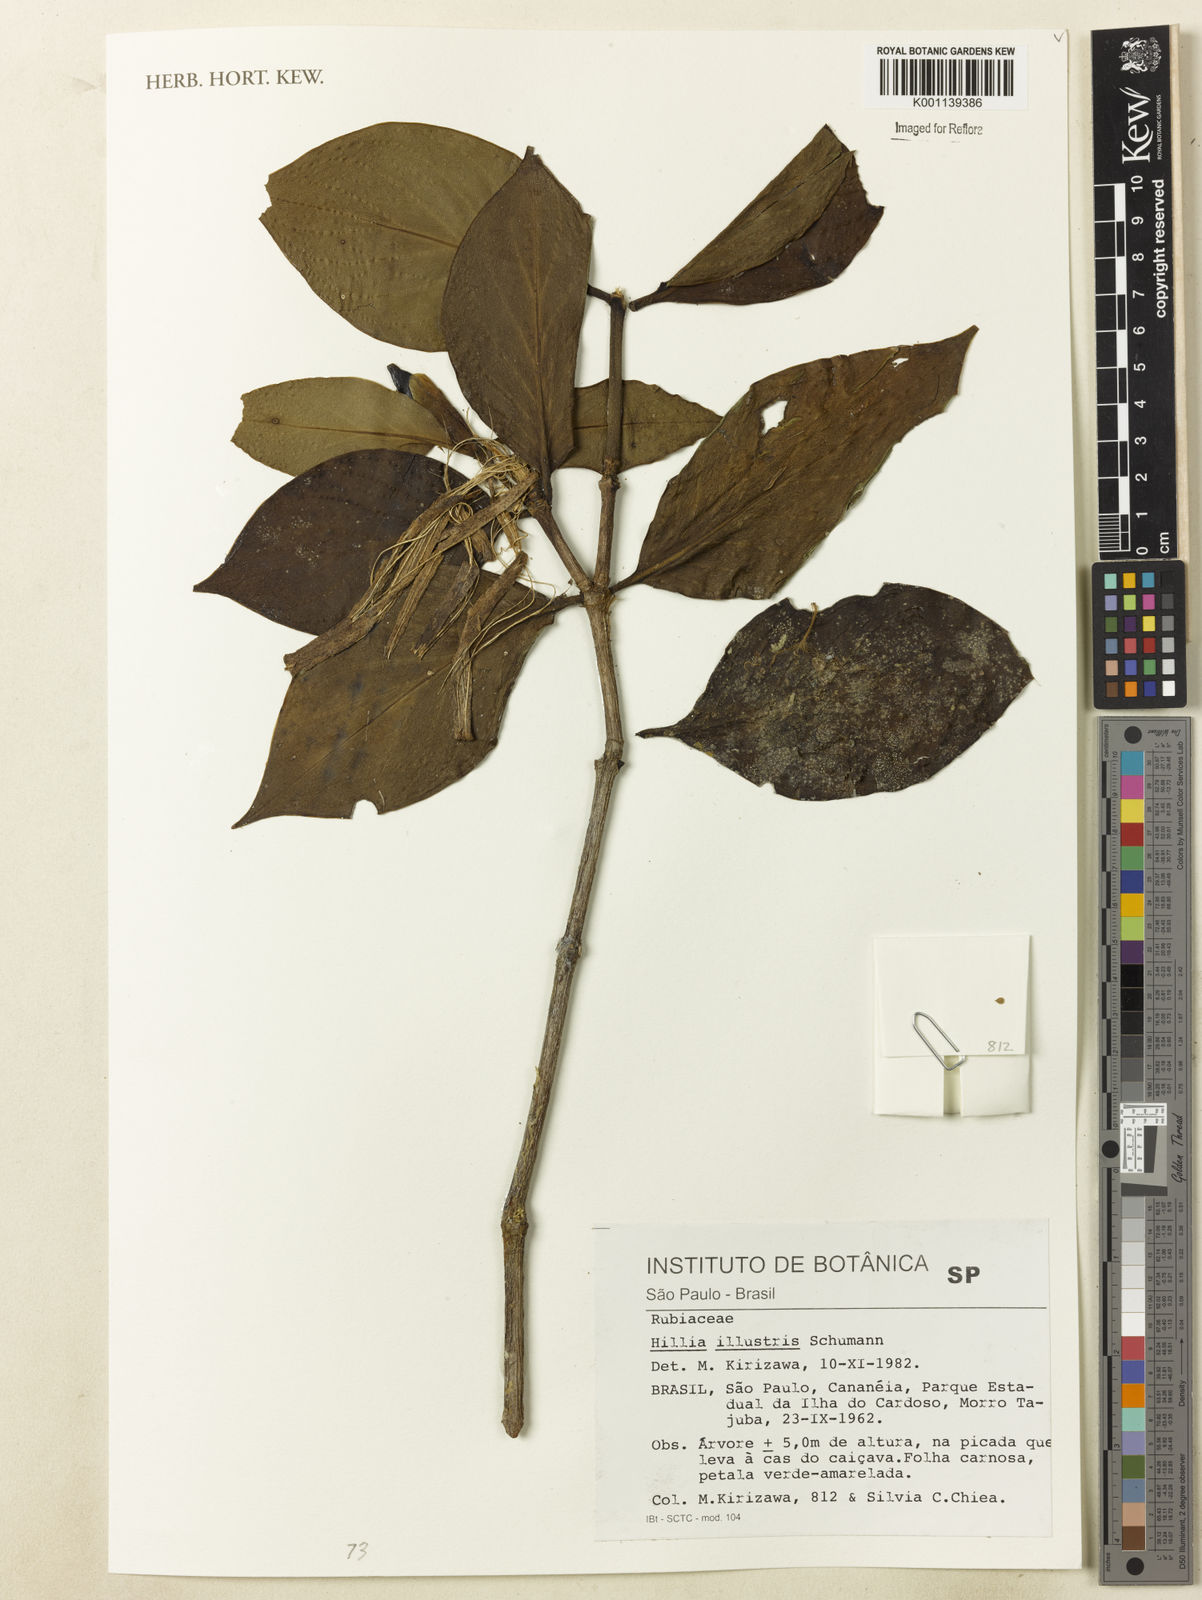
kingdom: Plantae
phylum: Tracheophyta
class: Magnoliopsida
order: Gentianales
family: Rubiaceae
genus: Hillia
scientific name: Hillia illustris
